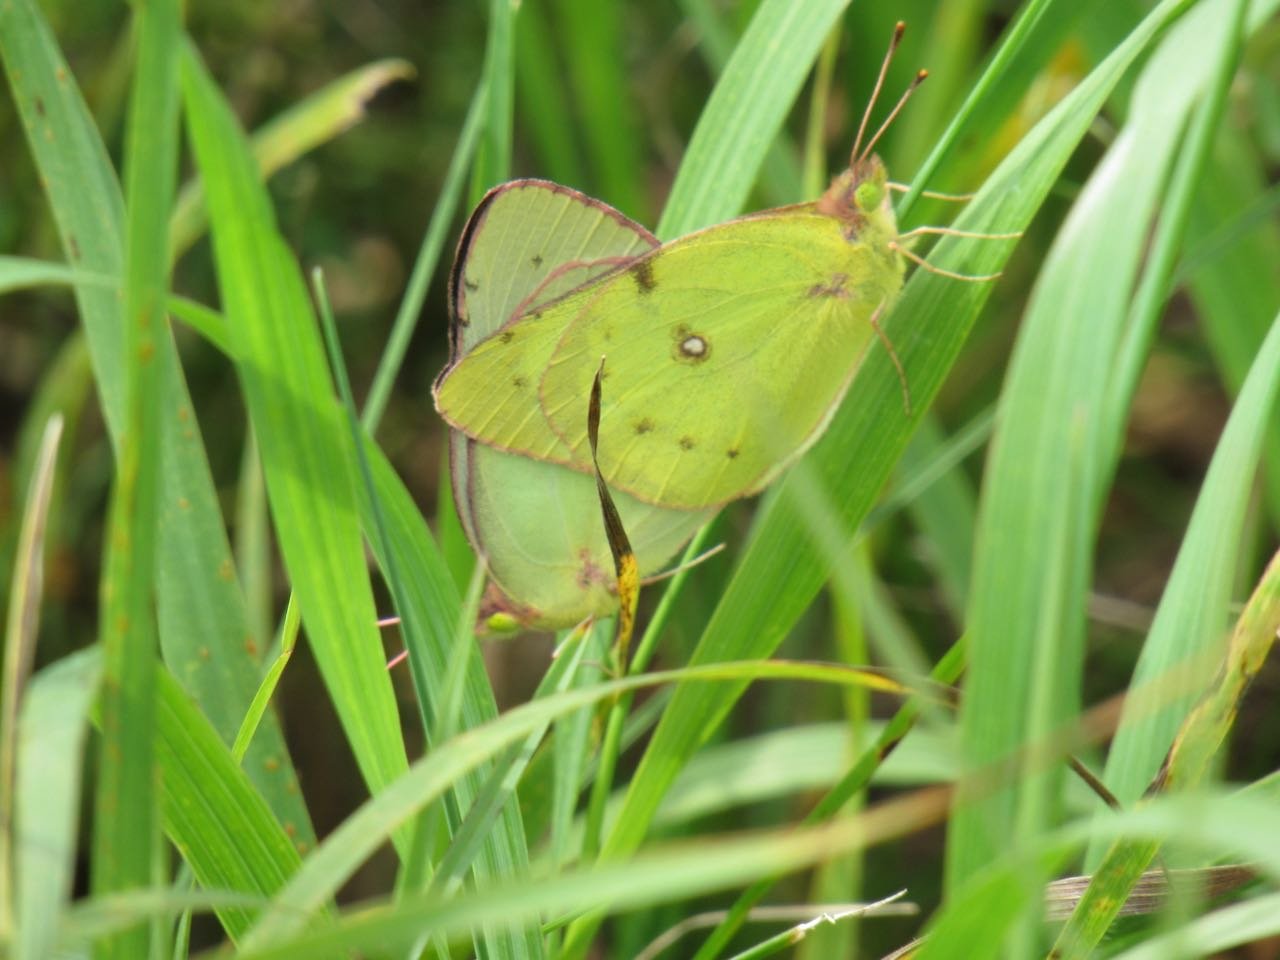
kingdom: Animalia
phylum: Arthropoda
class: Insecta
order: Lepidoptera
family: Pieridae
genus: Colias
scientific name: Colias philodice
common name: Clouded Sulphur
